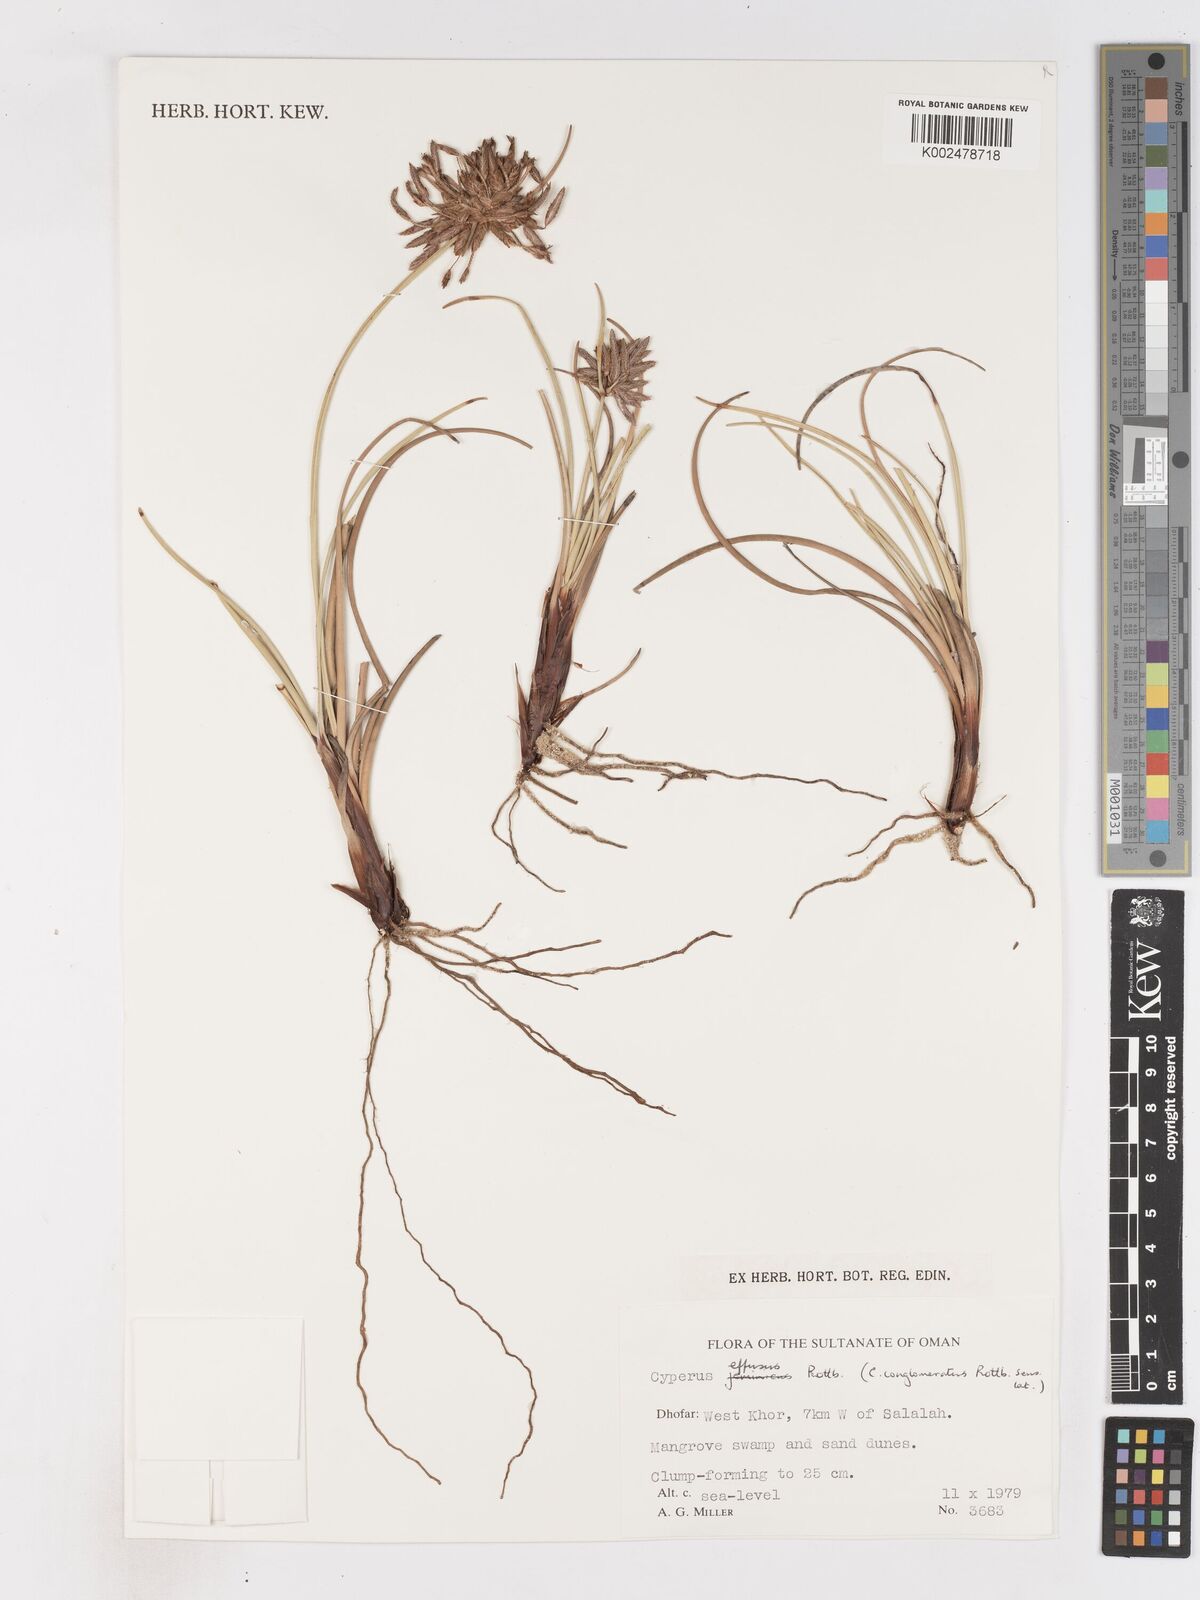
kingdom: Plantae
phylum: Tracheophyta
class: Liliopsida
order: Poales
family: Cyperaceae
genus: Cyperus
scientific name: Cyperus conglomeratus
